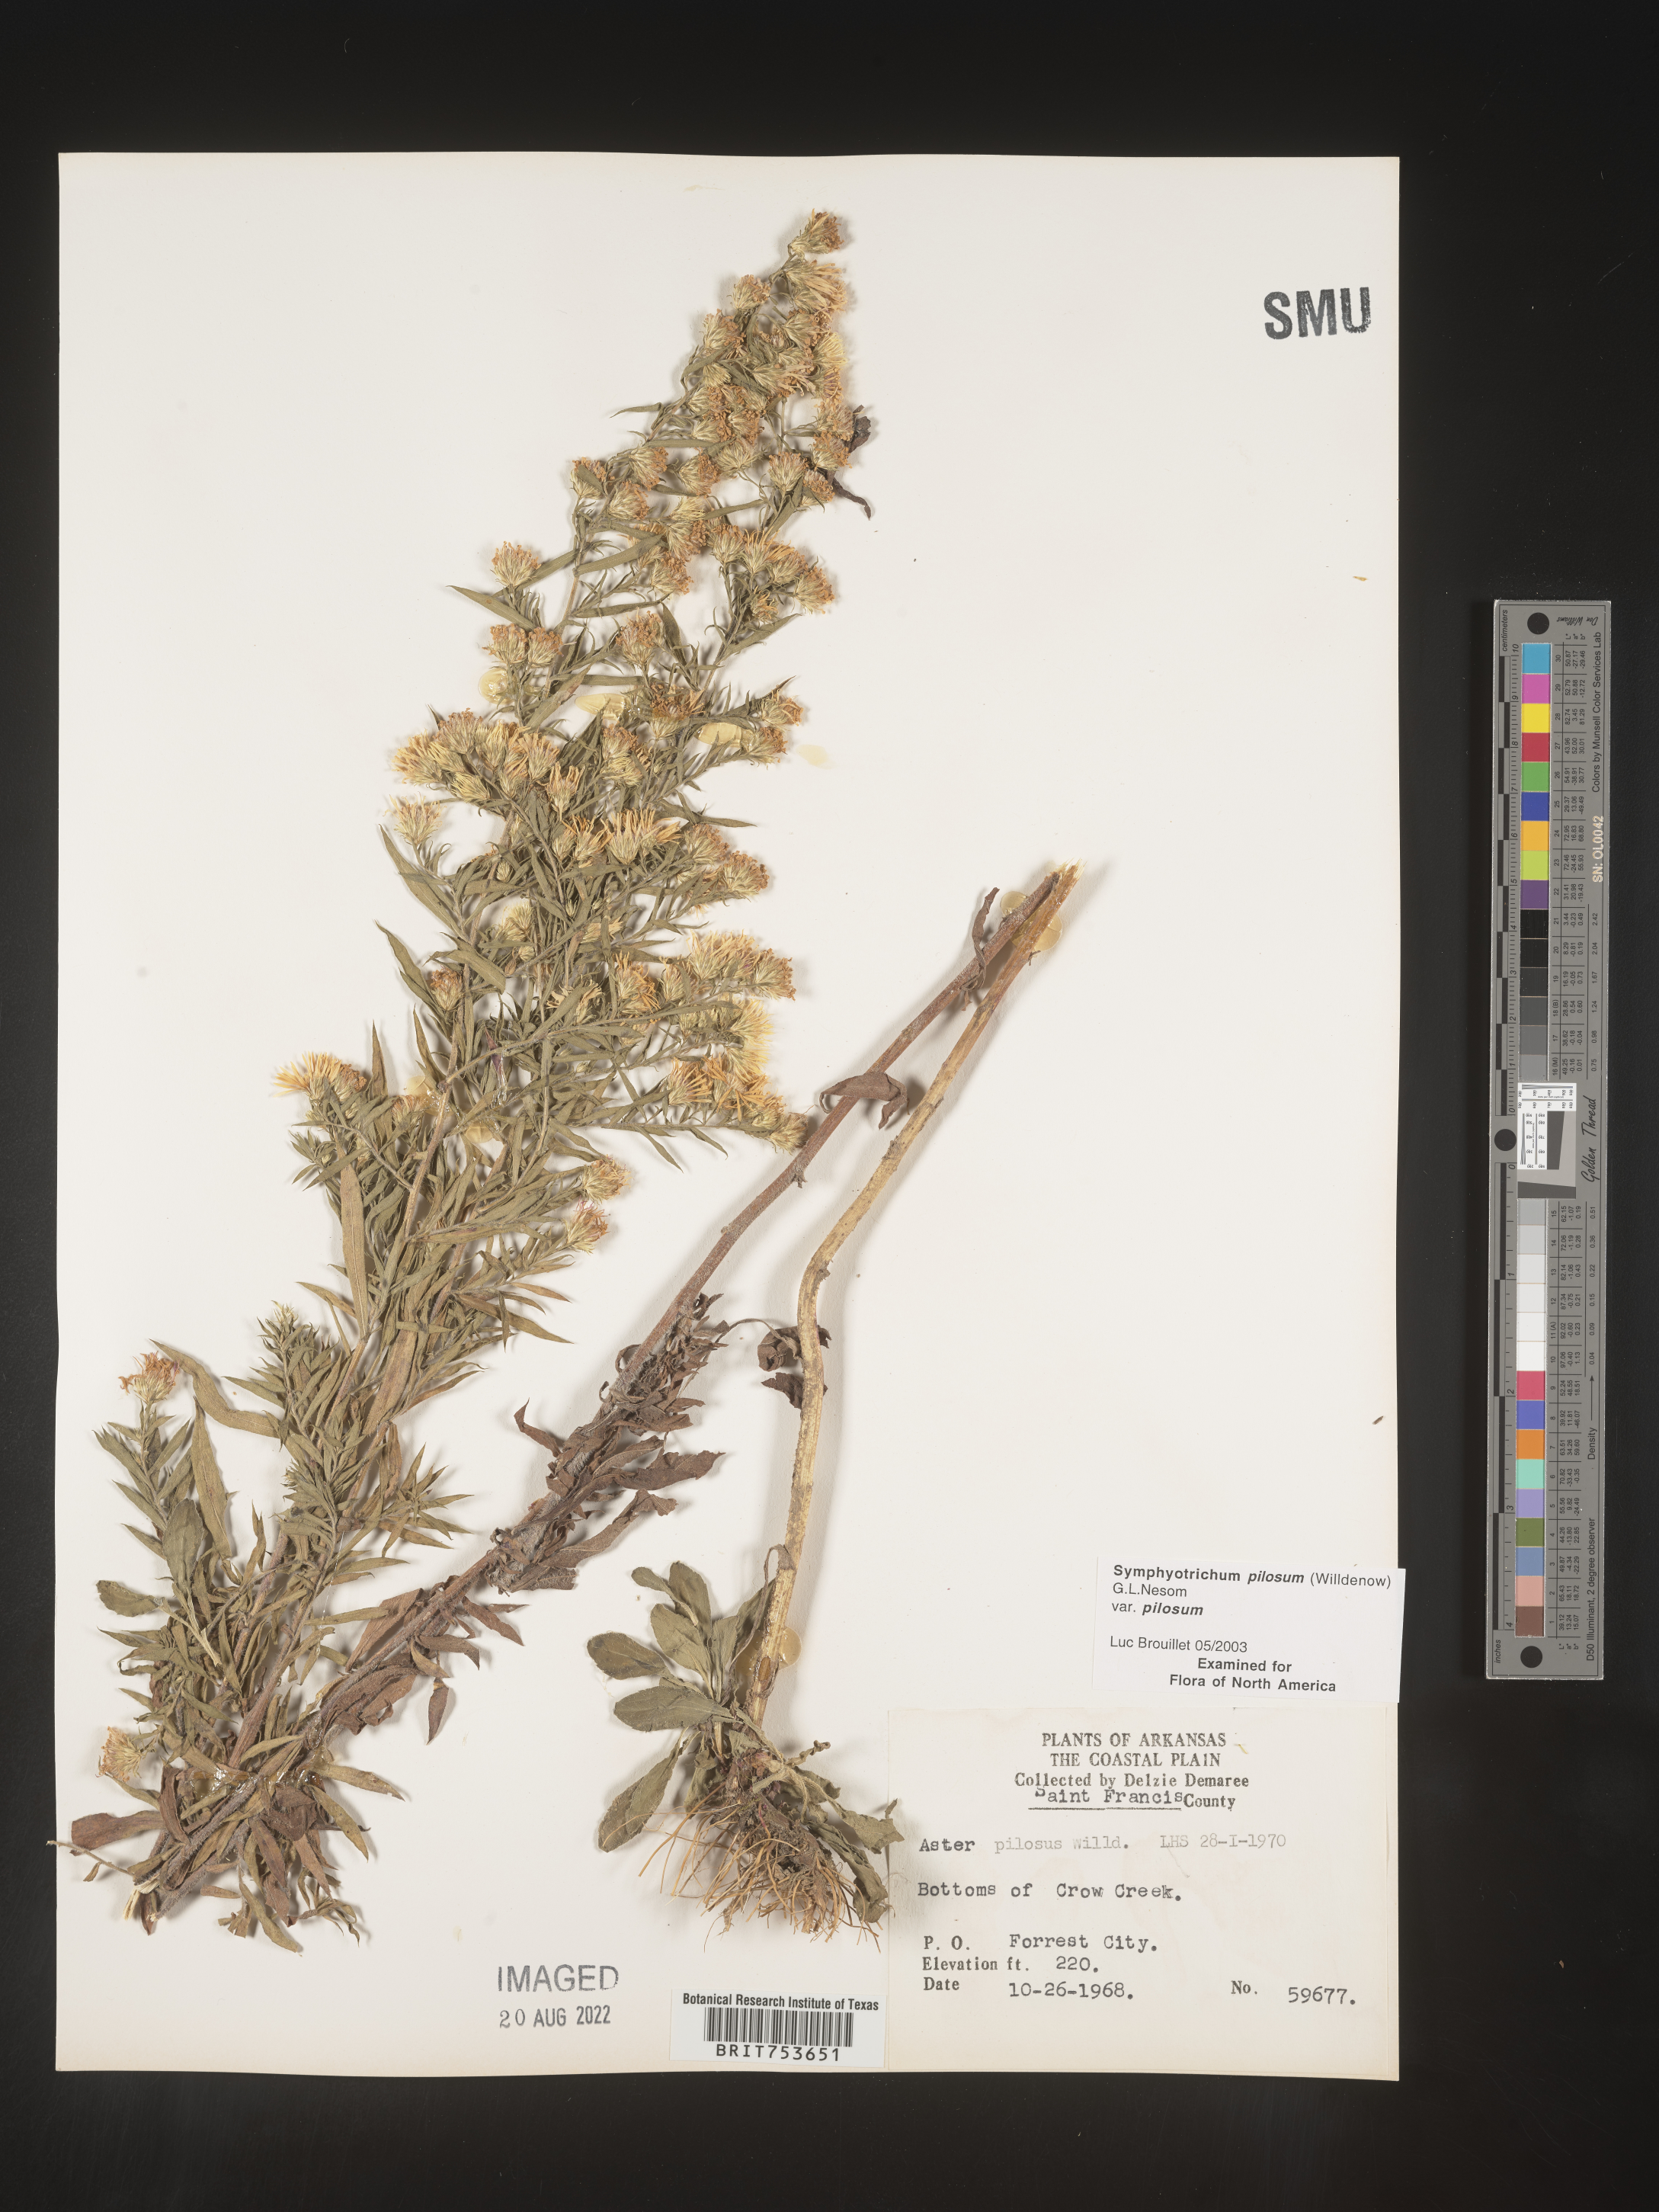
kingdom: Plantae
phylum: Tracheophyta
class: Magnoliopsida
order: Asterales
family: Asteraceae
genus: Symphyotrichum
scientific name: Symphyotrichum pilosum
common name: Awl aster
